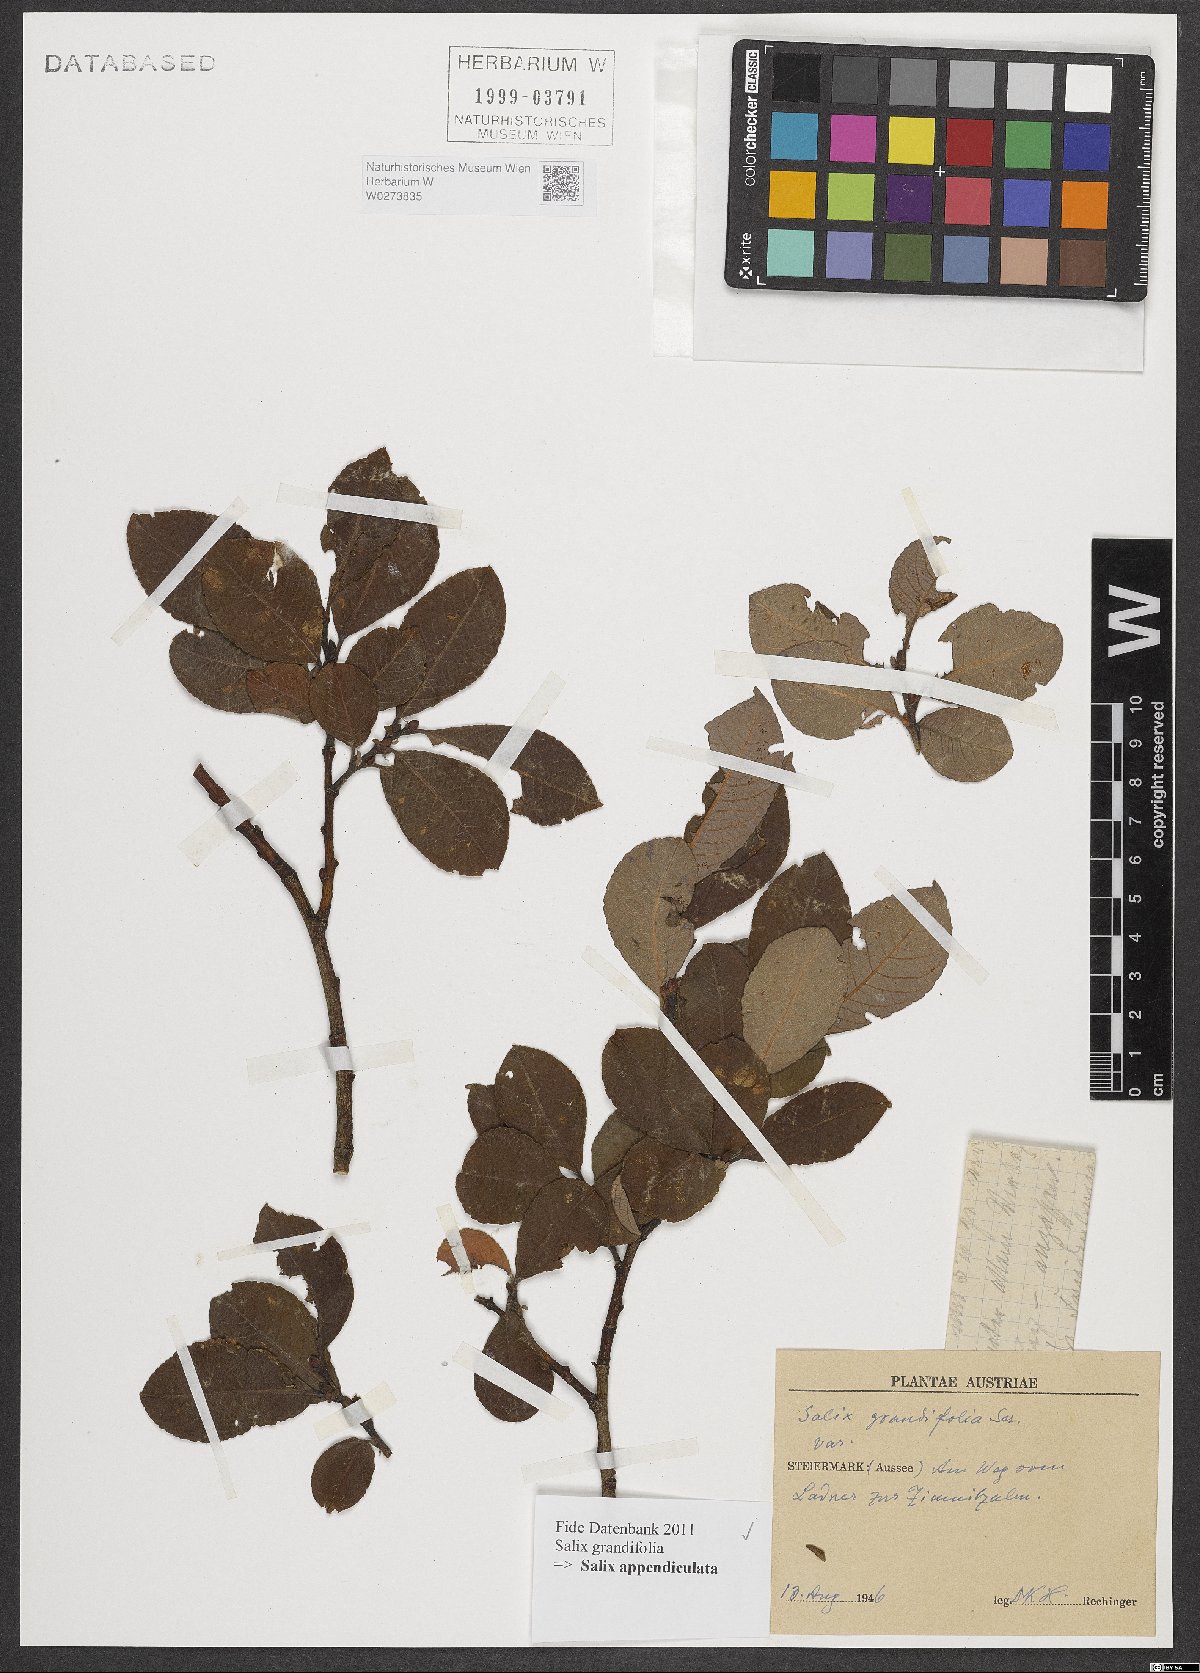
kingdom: Plantae
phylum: Tracheophyta
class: Magnoliopsida
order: Malpighiales
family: Salicaceae
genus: Salix
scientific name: Salix appendiculata
